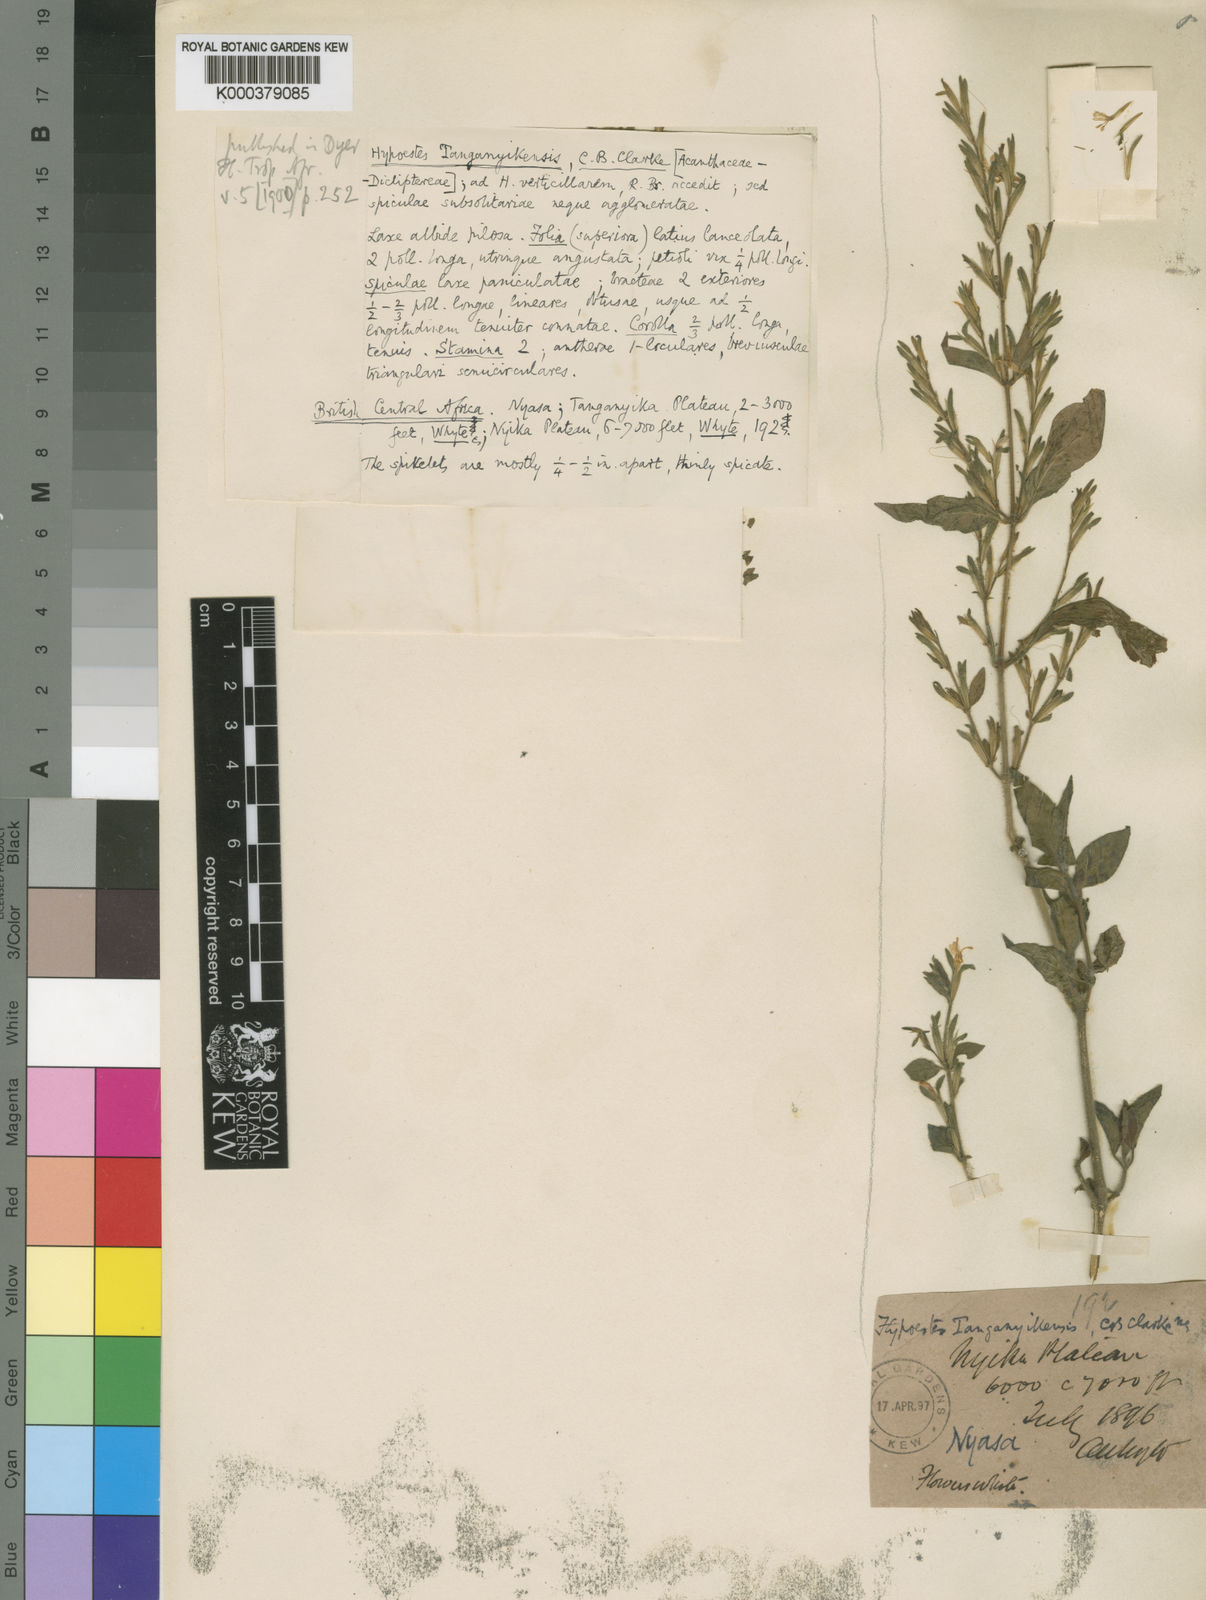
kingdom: Plantae
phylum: Tracheophyta
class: Magnoliopsida
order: Lamiales
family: Acanthaceae
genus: Hypoestes
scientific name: Hypoestes
